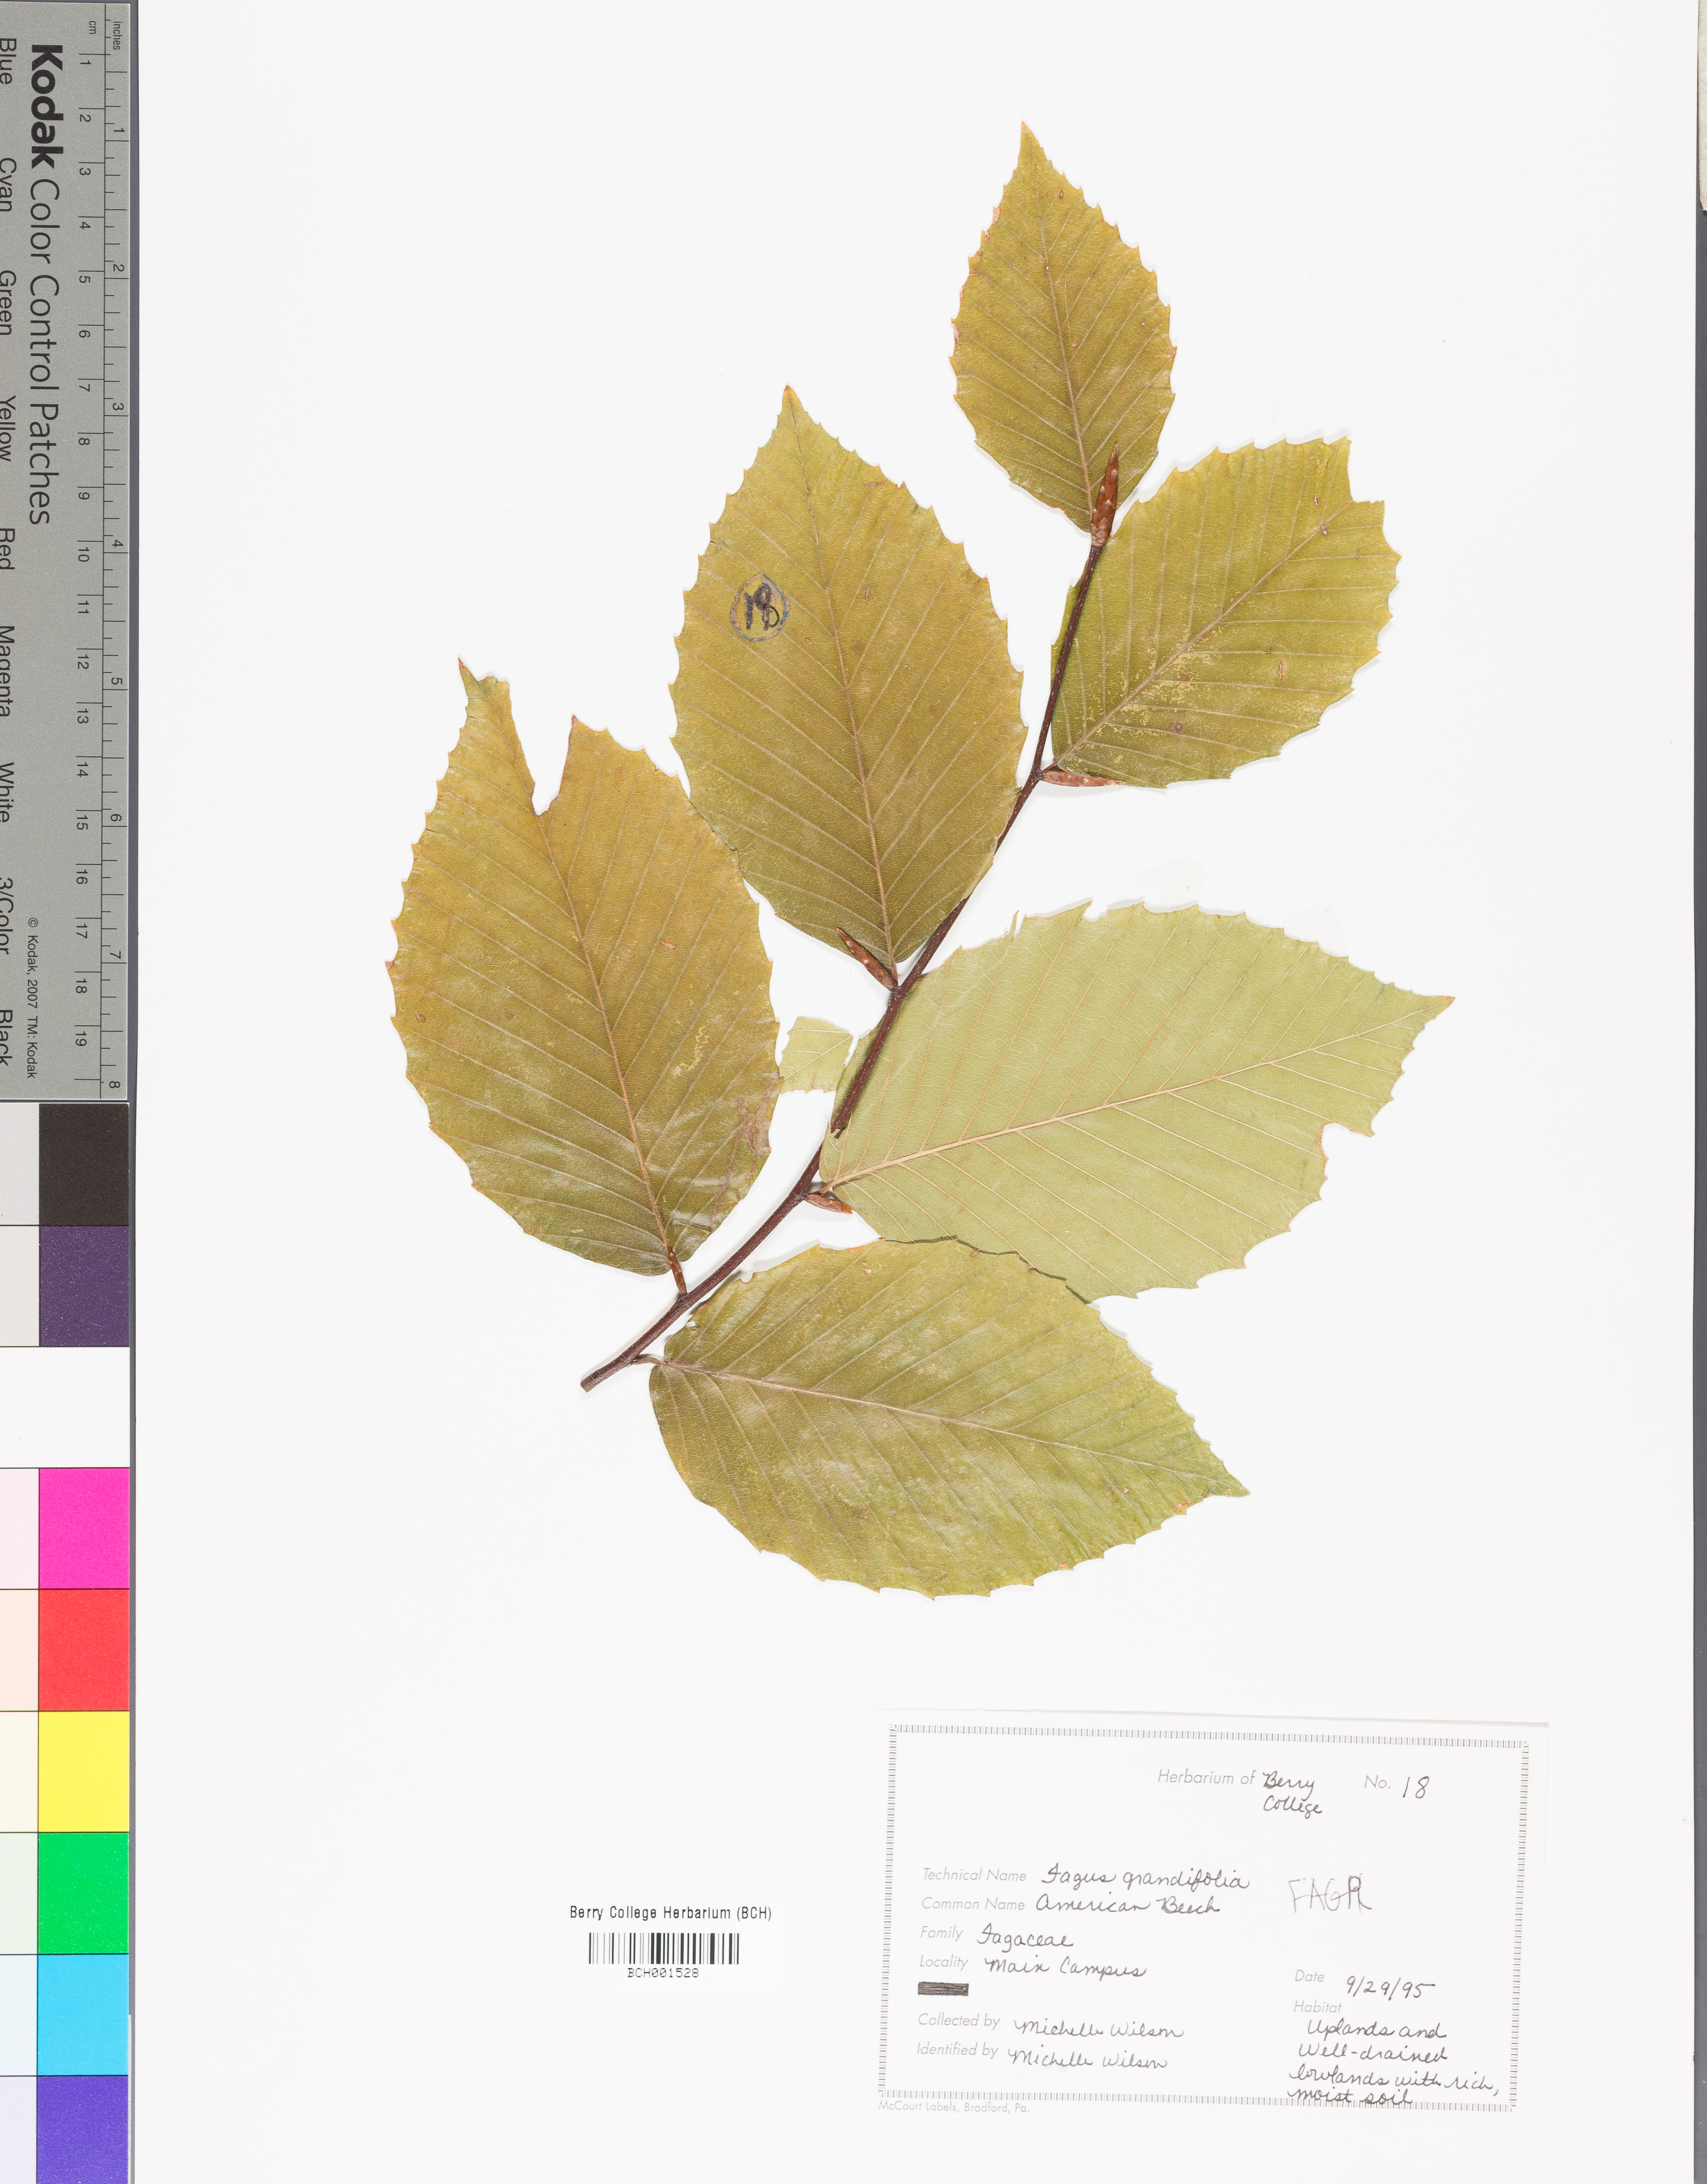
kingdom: Plantae
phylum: Tracheophyta
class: Magnoliopsida
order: Fagales
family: Fagaceae
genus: Fagus
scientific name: Fagus grandifolia
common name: American beech
